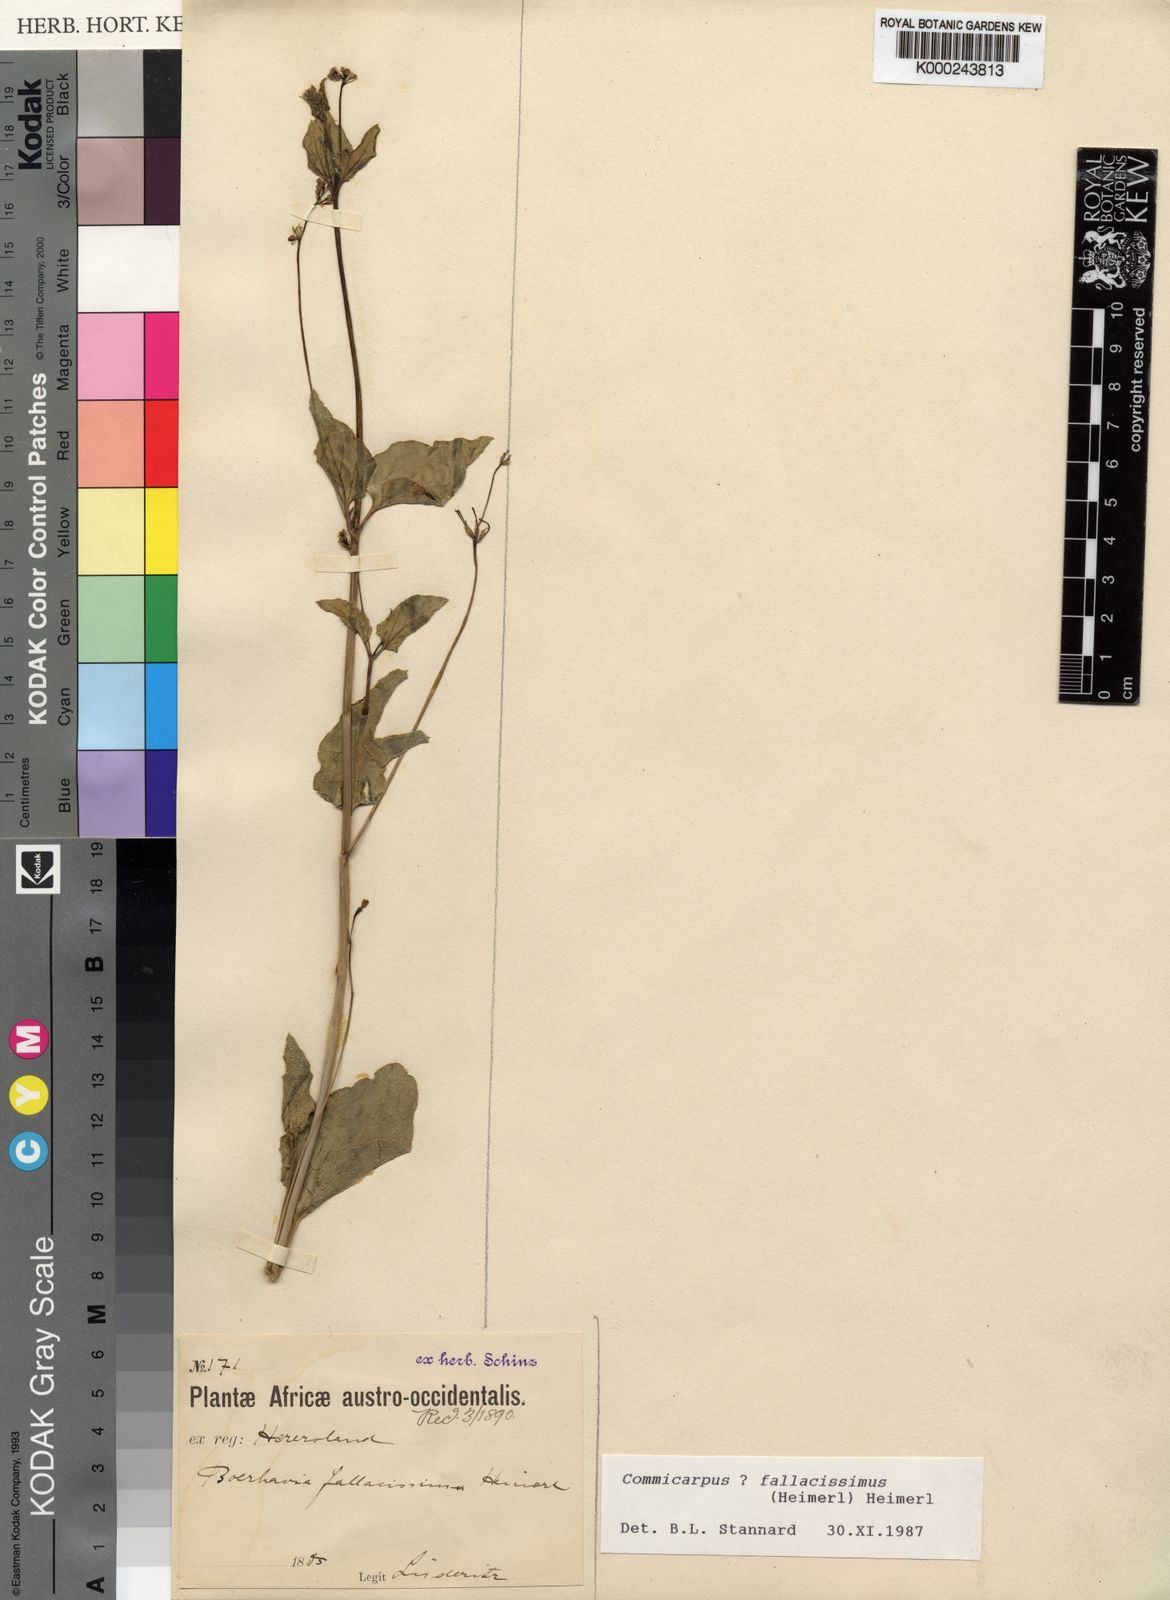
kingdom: Plantae
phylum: Tracheophyta
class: Magnoliopsida
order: Caryophyllales
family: Nyctaginaceae
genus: Commicarpus
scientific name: Commicarpus
